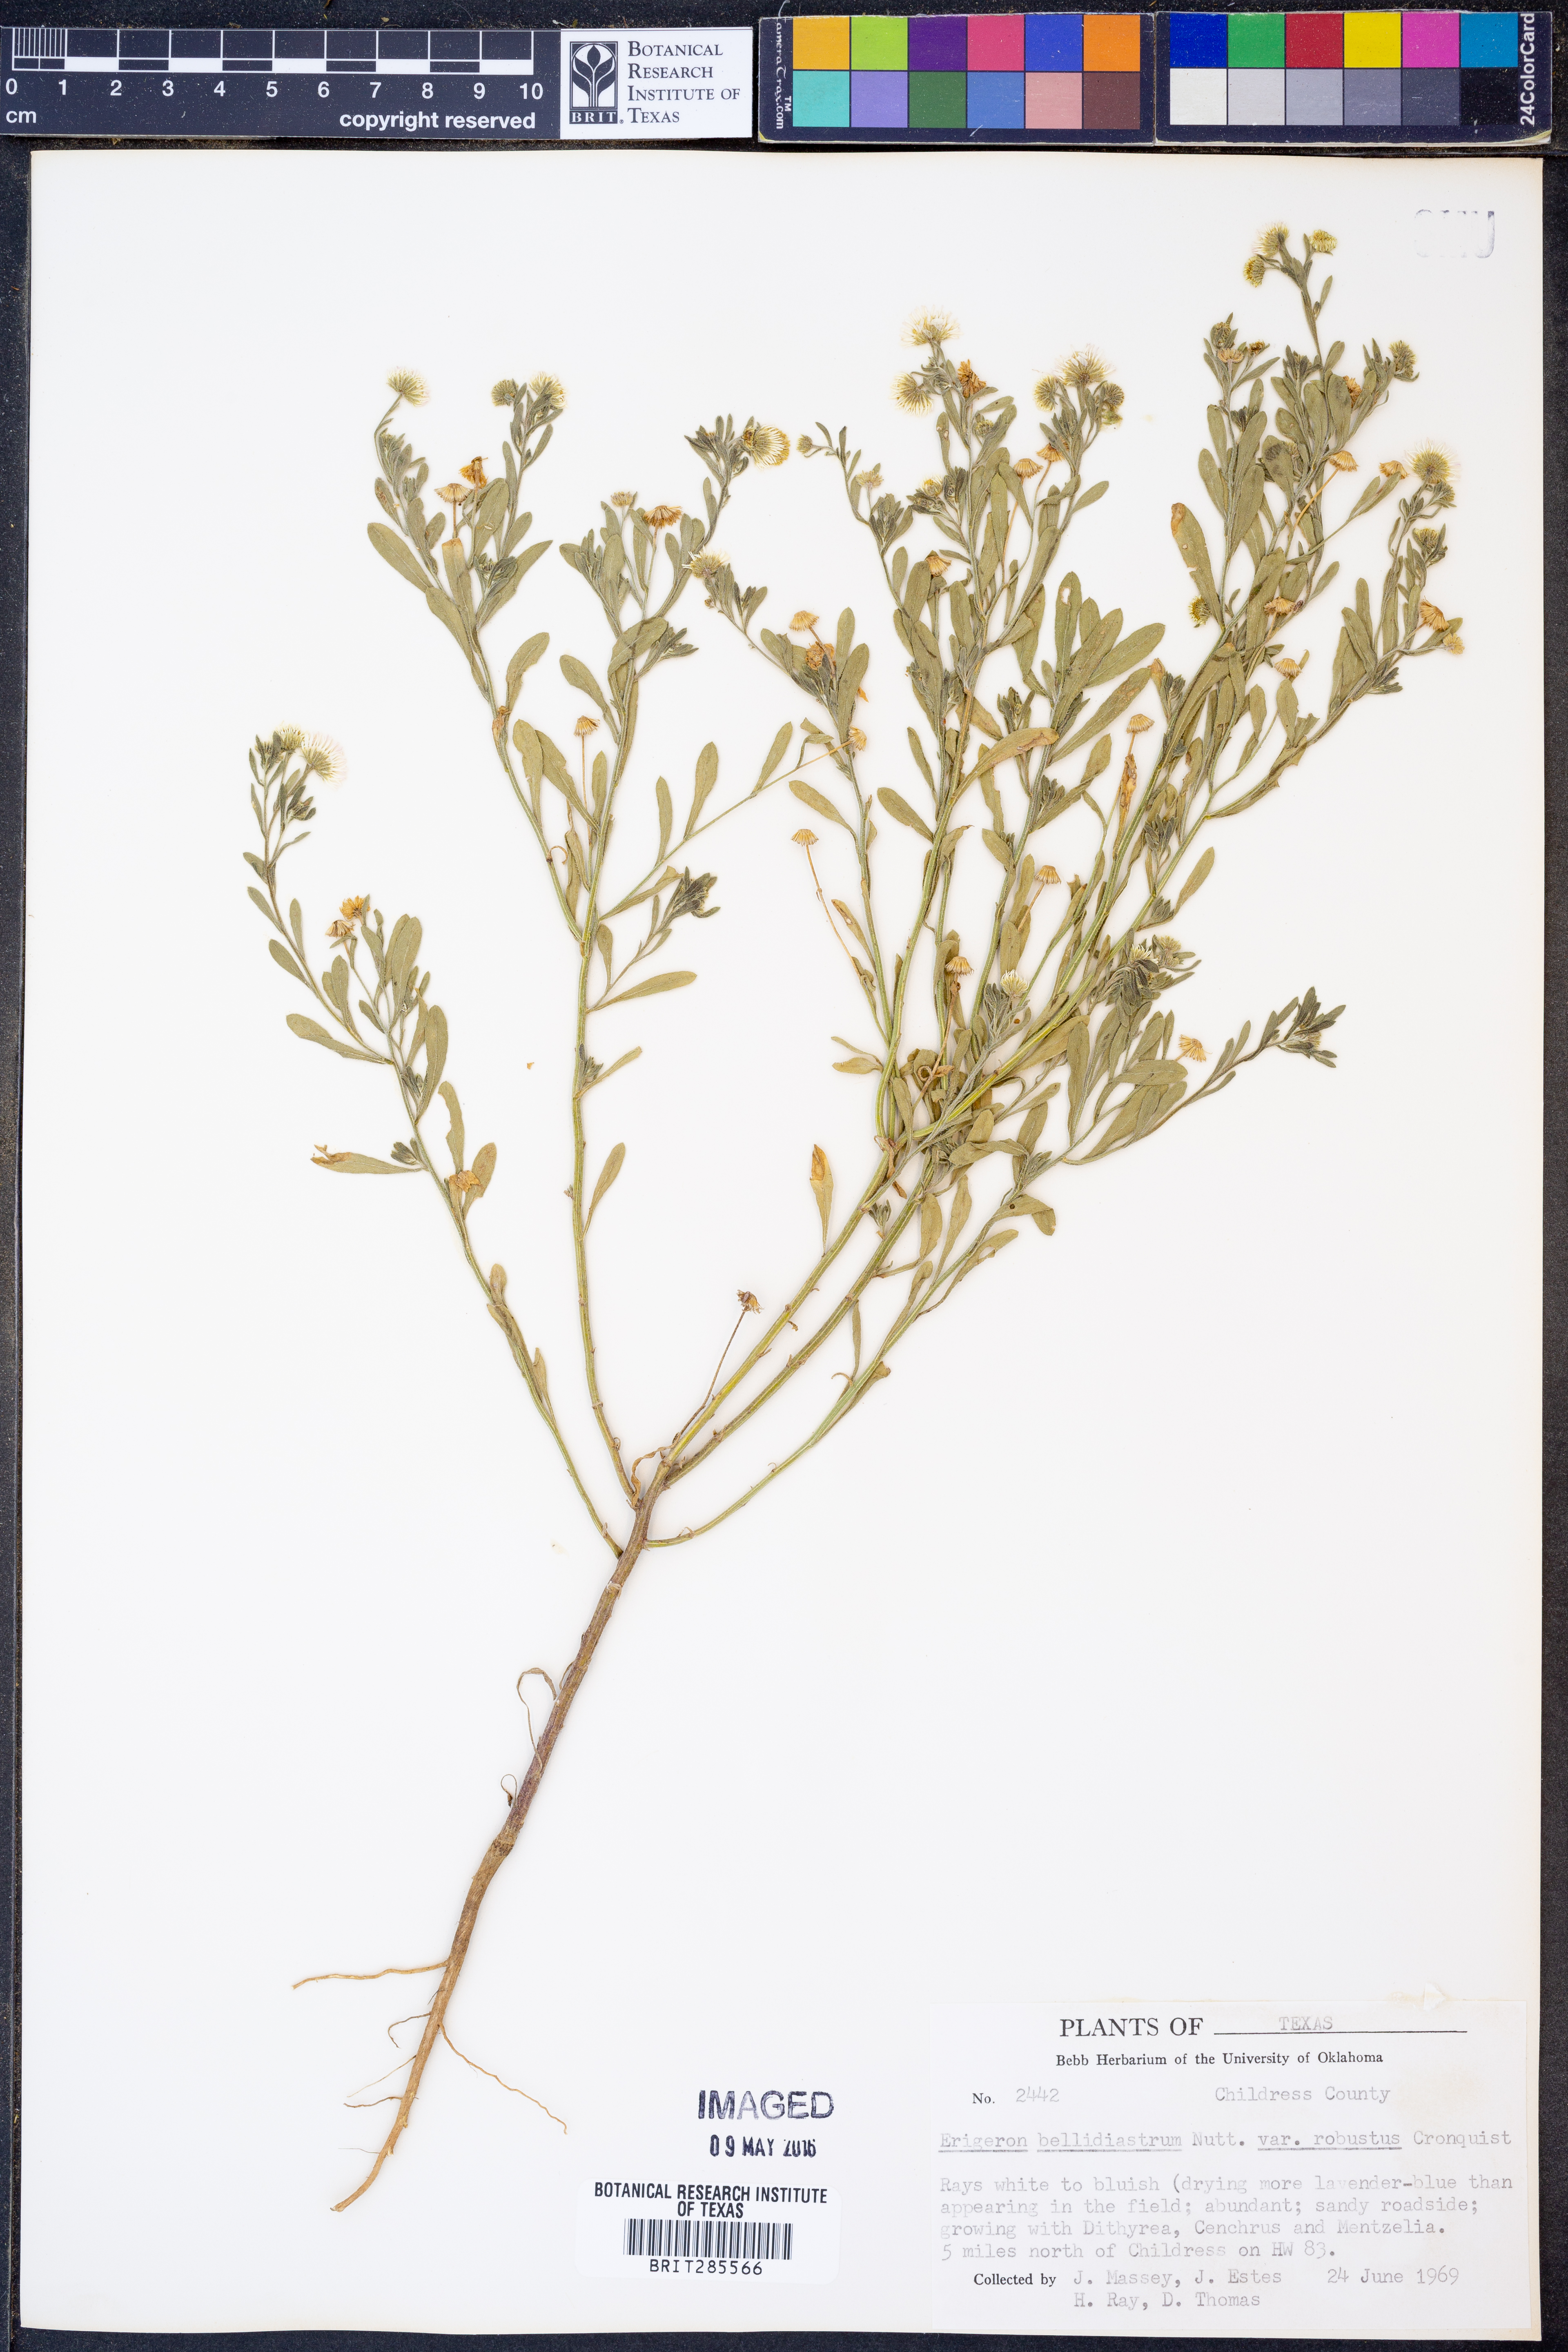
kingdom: Plantae
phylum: Tracheophyta
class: Magnoliopsida
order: Asterales
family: Asteraceae
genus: Erigeron
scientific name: Erigeron bellidiastrum
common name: Sand fleabane
